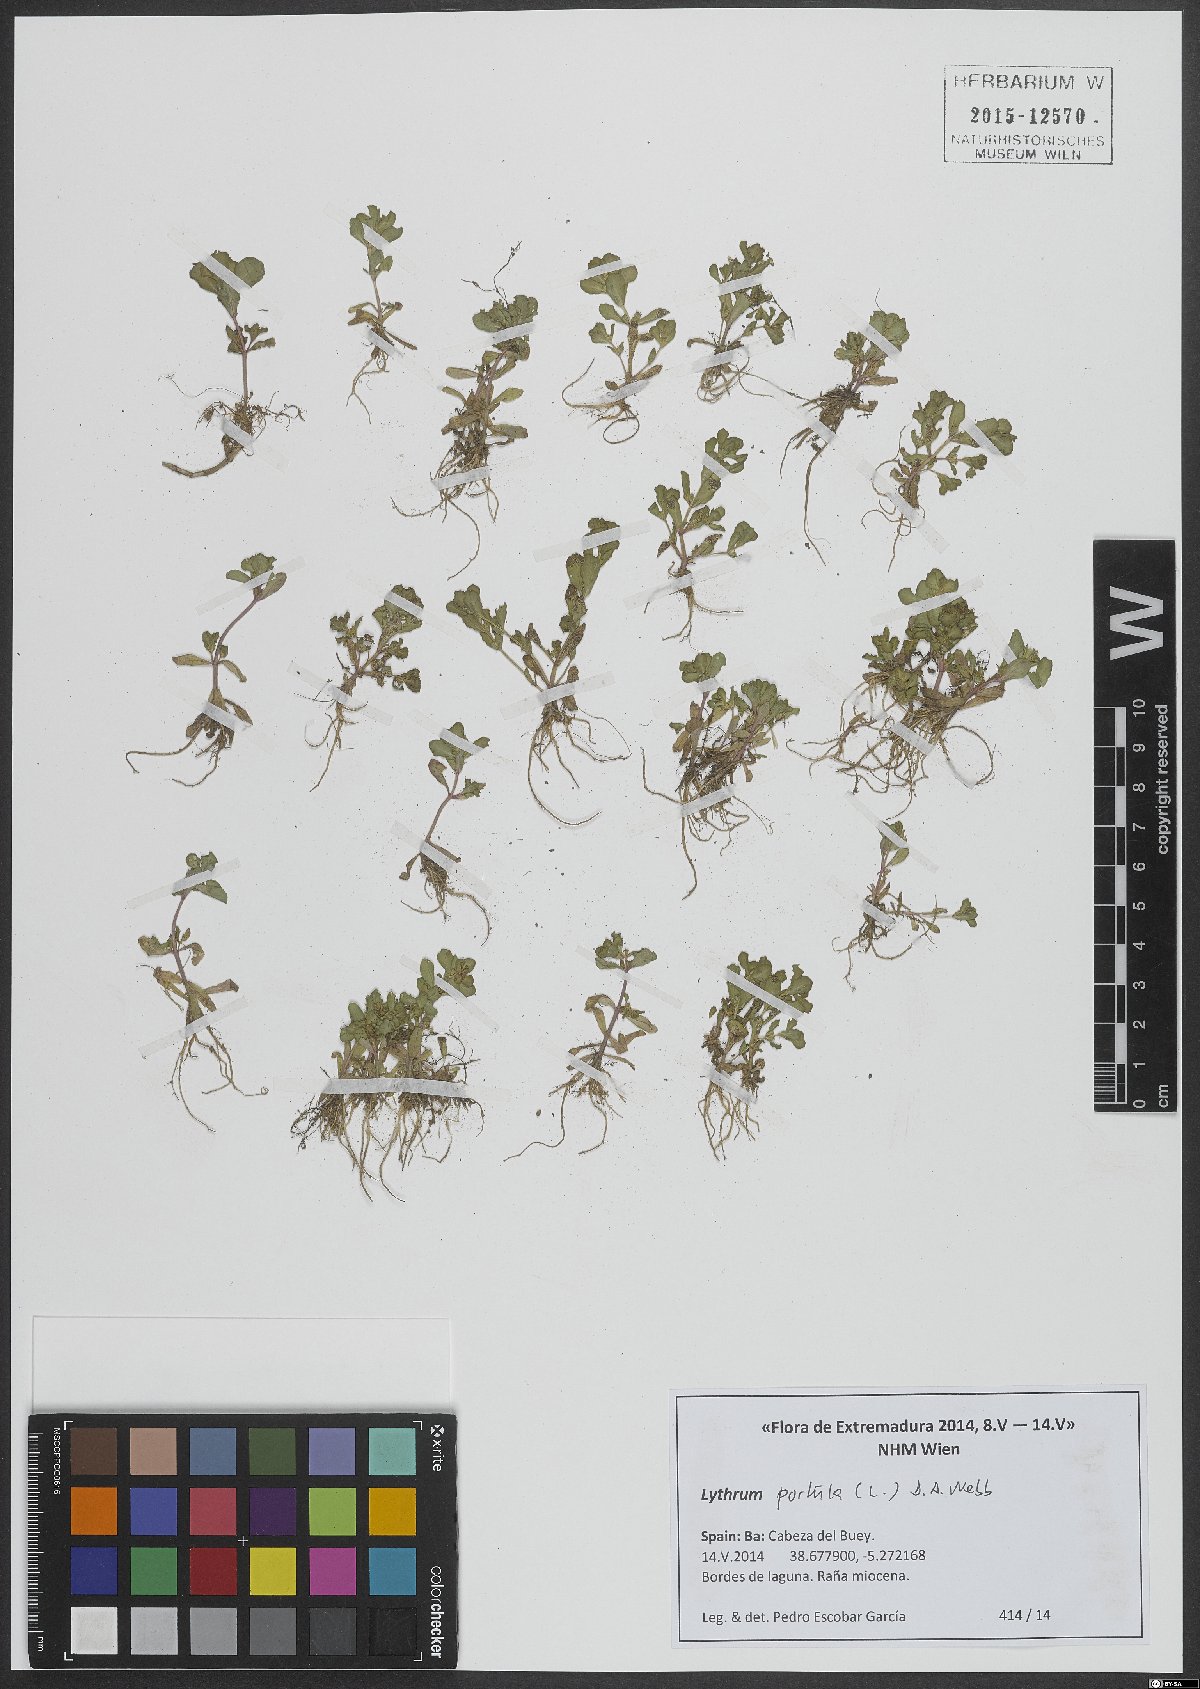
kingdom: Plantae
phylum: Tracheophyta
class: Magnoliopsida
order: Myrtales
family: Lythraceae
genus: Lythrum
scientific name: Lythrum portula
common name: Water purslane
